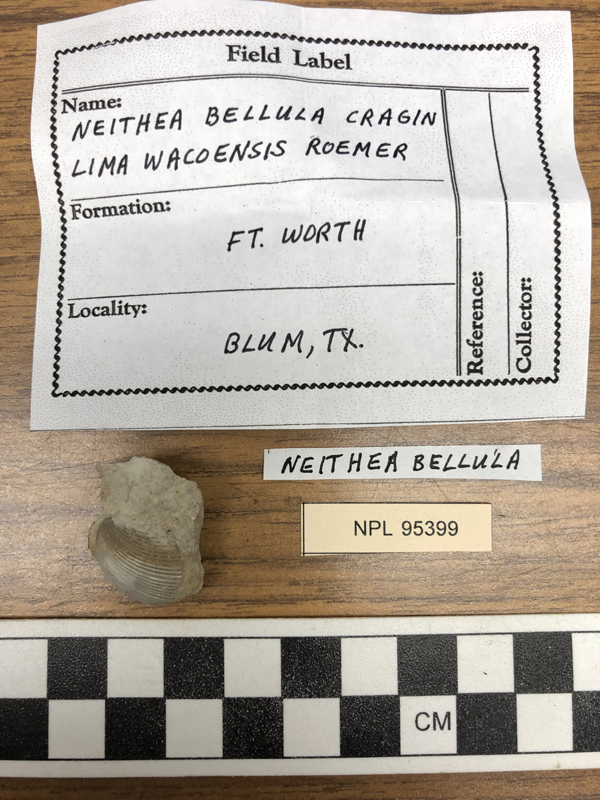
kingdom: Animalia
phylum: Mollusca
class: Bivalvia
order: Pectinida
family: Neitheidae
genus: Neithea
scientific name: Neithea bellulus
